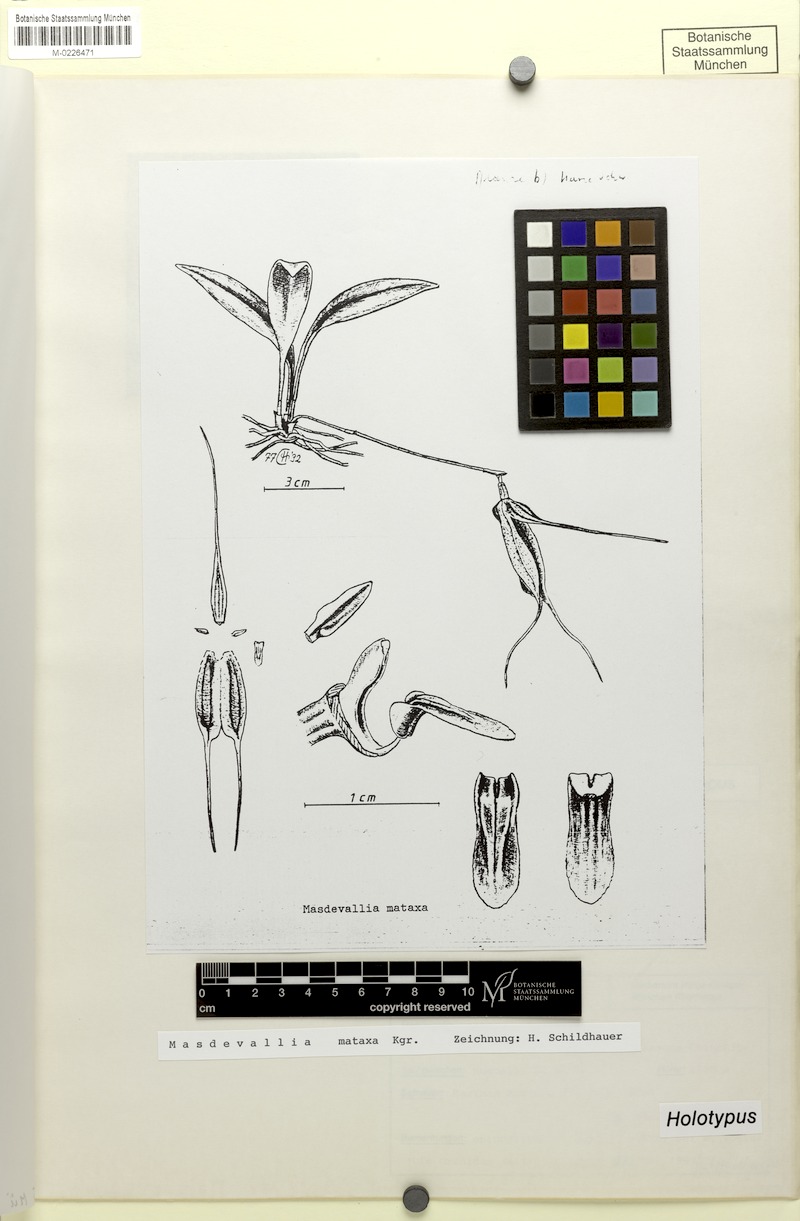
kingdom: Plantae
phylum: Tracheophyta
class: Liliopsida
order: Asparagales
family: Orchidaceae
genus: Masdevallia
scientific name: Masdevallia mataxa
